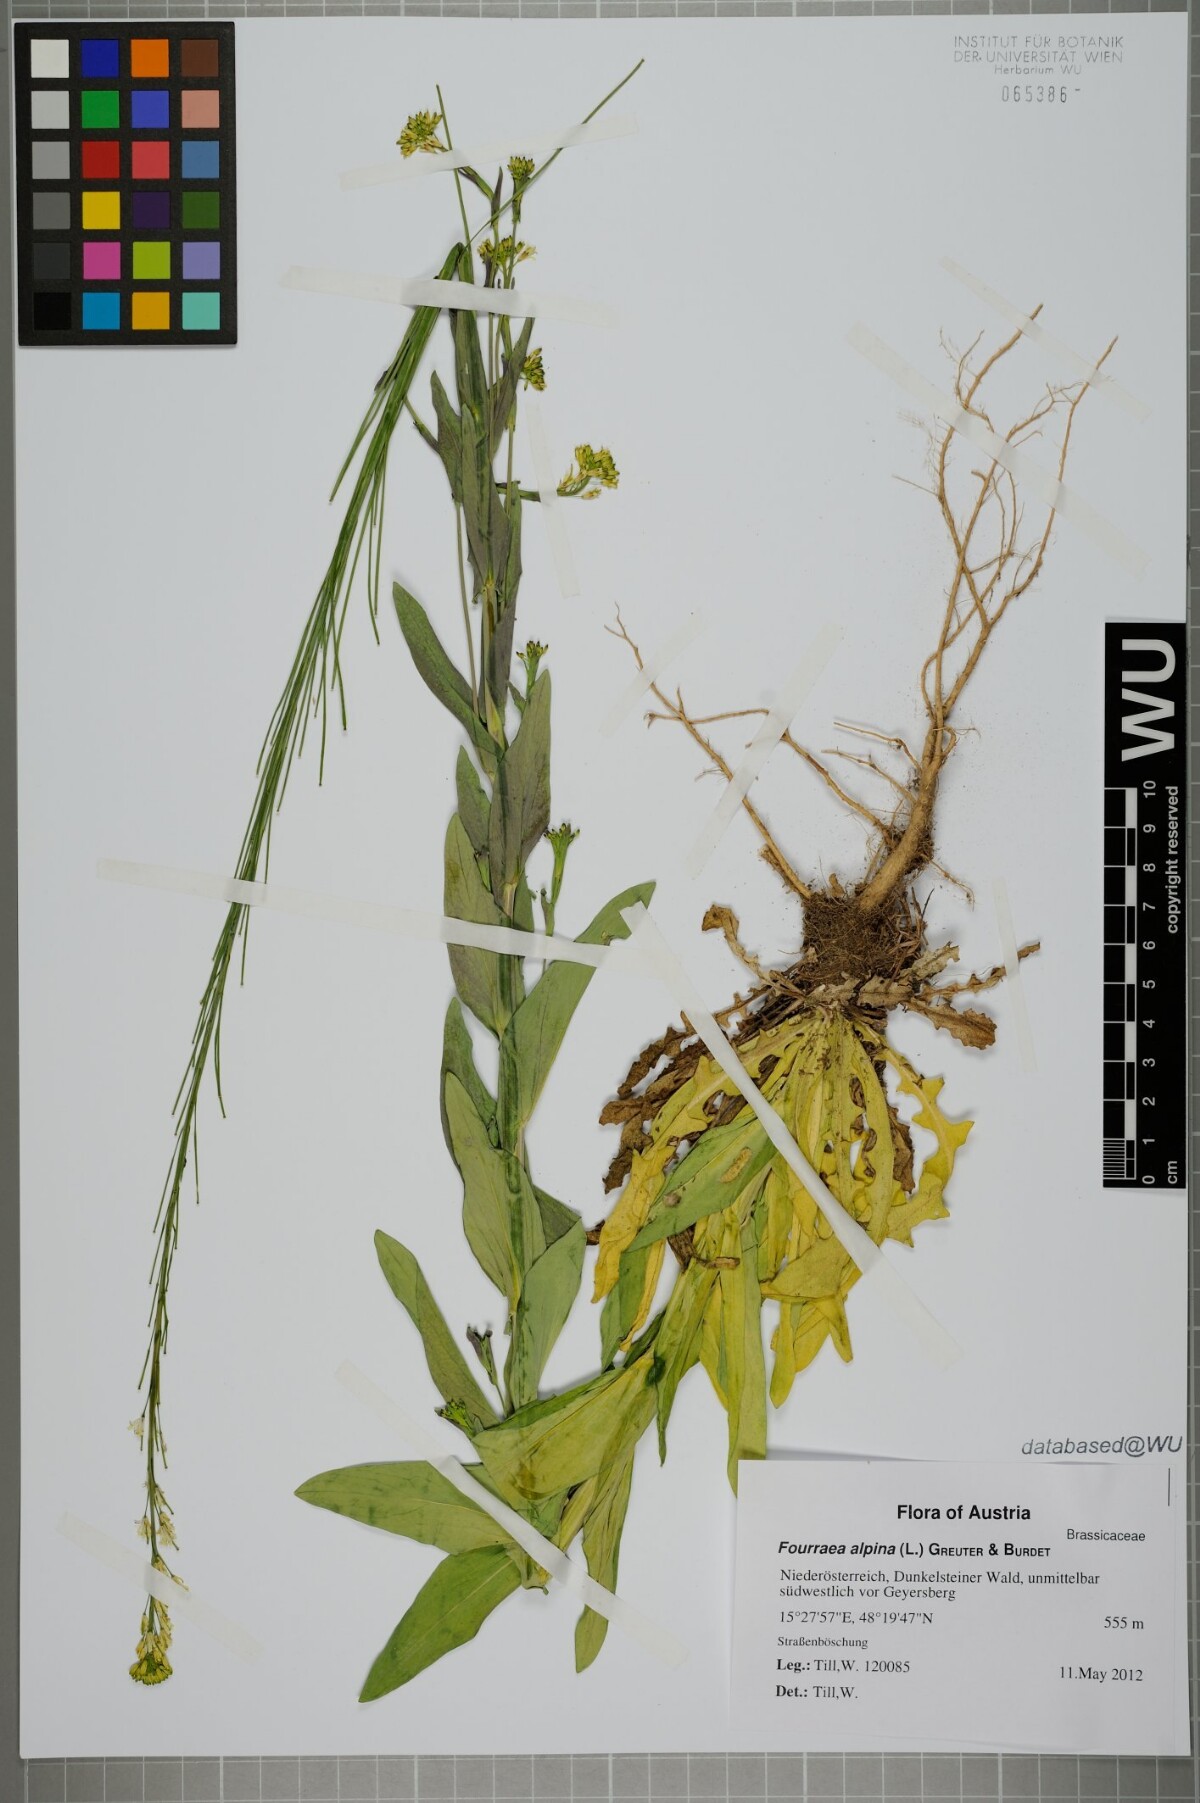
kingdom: Plantae
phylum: Tracheophyta
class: Magnoliopsida
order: Brassicales
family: Brassicaceae
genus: Turritis
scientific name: Turritis glabra
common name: Tower rockcress
